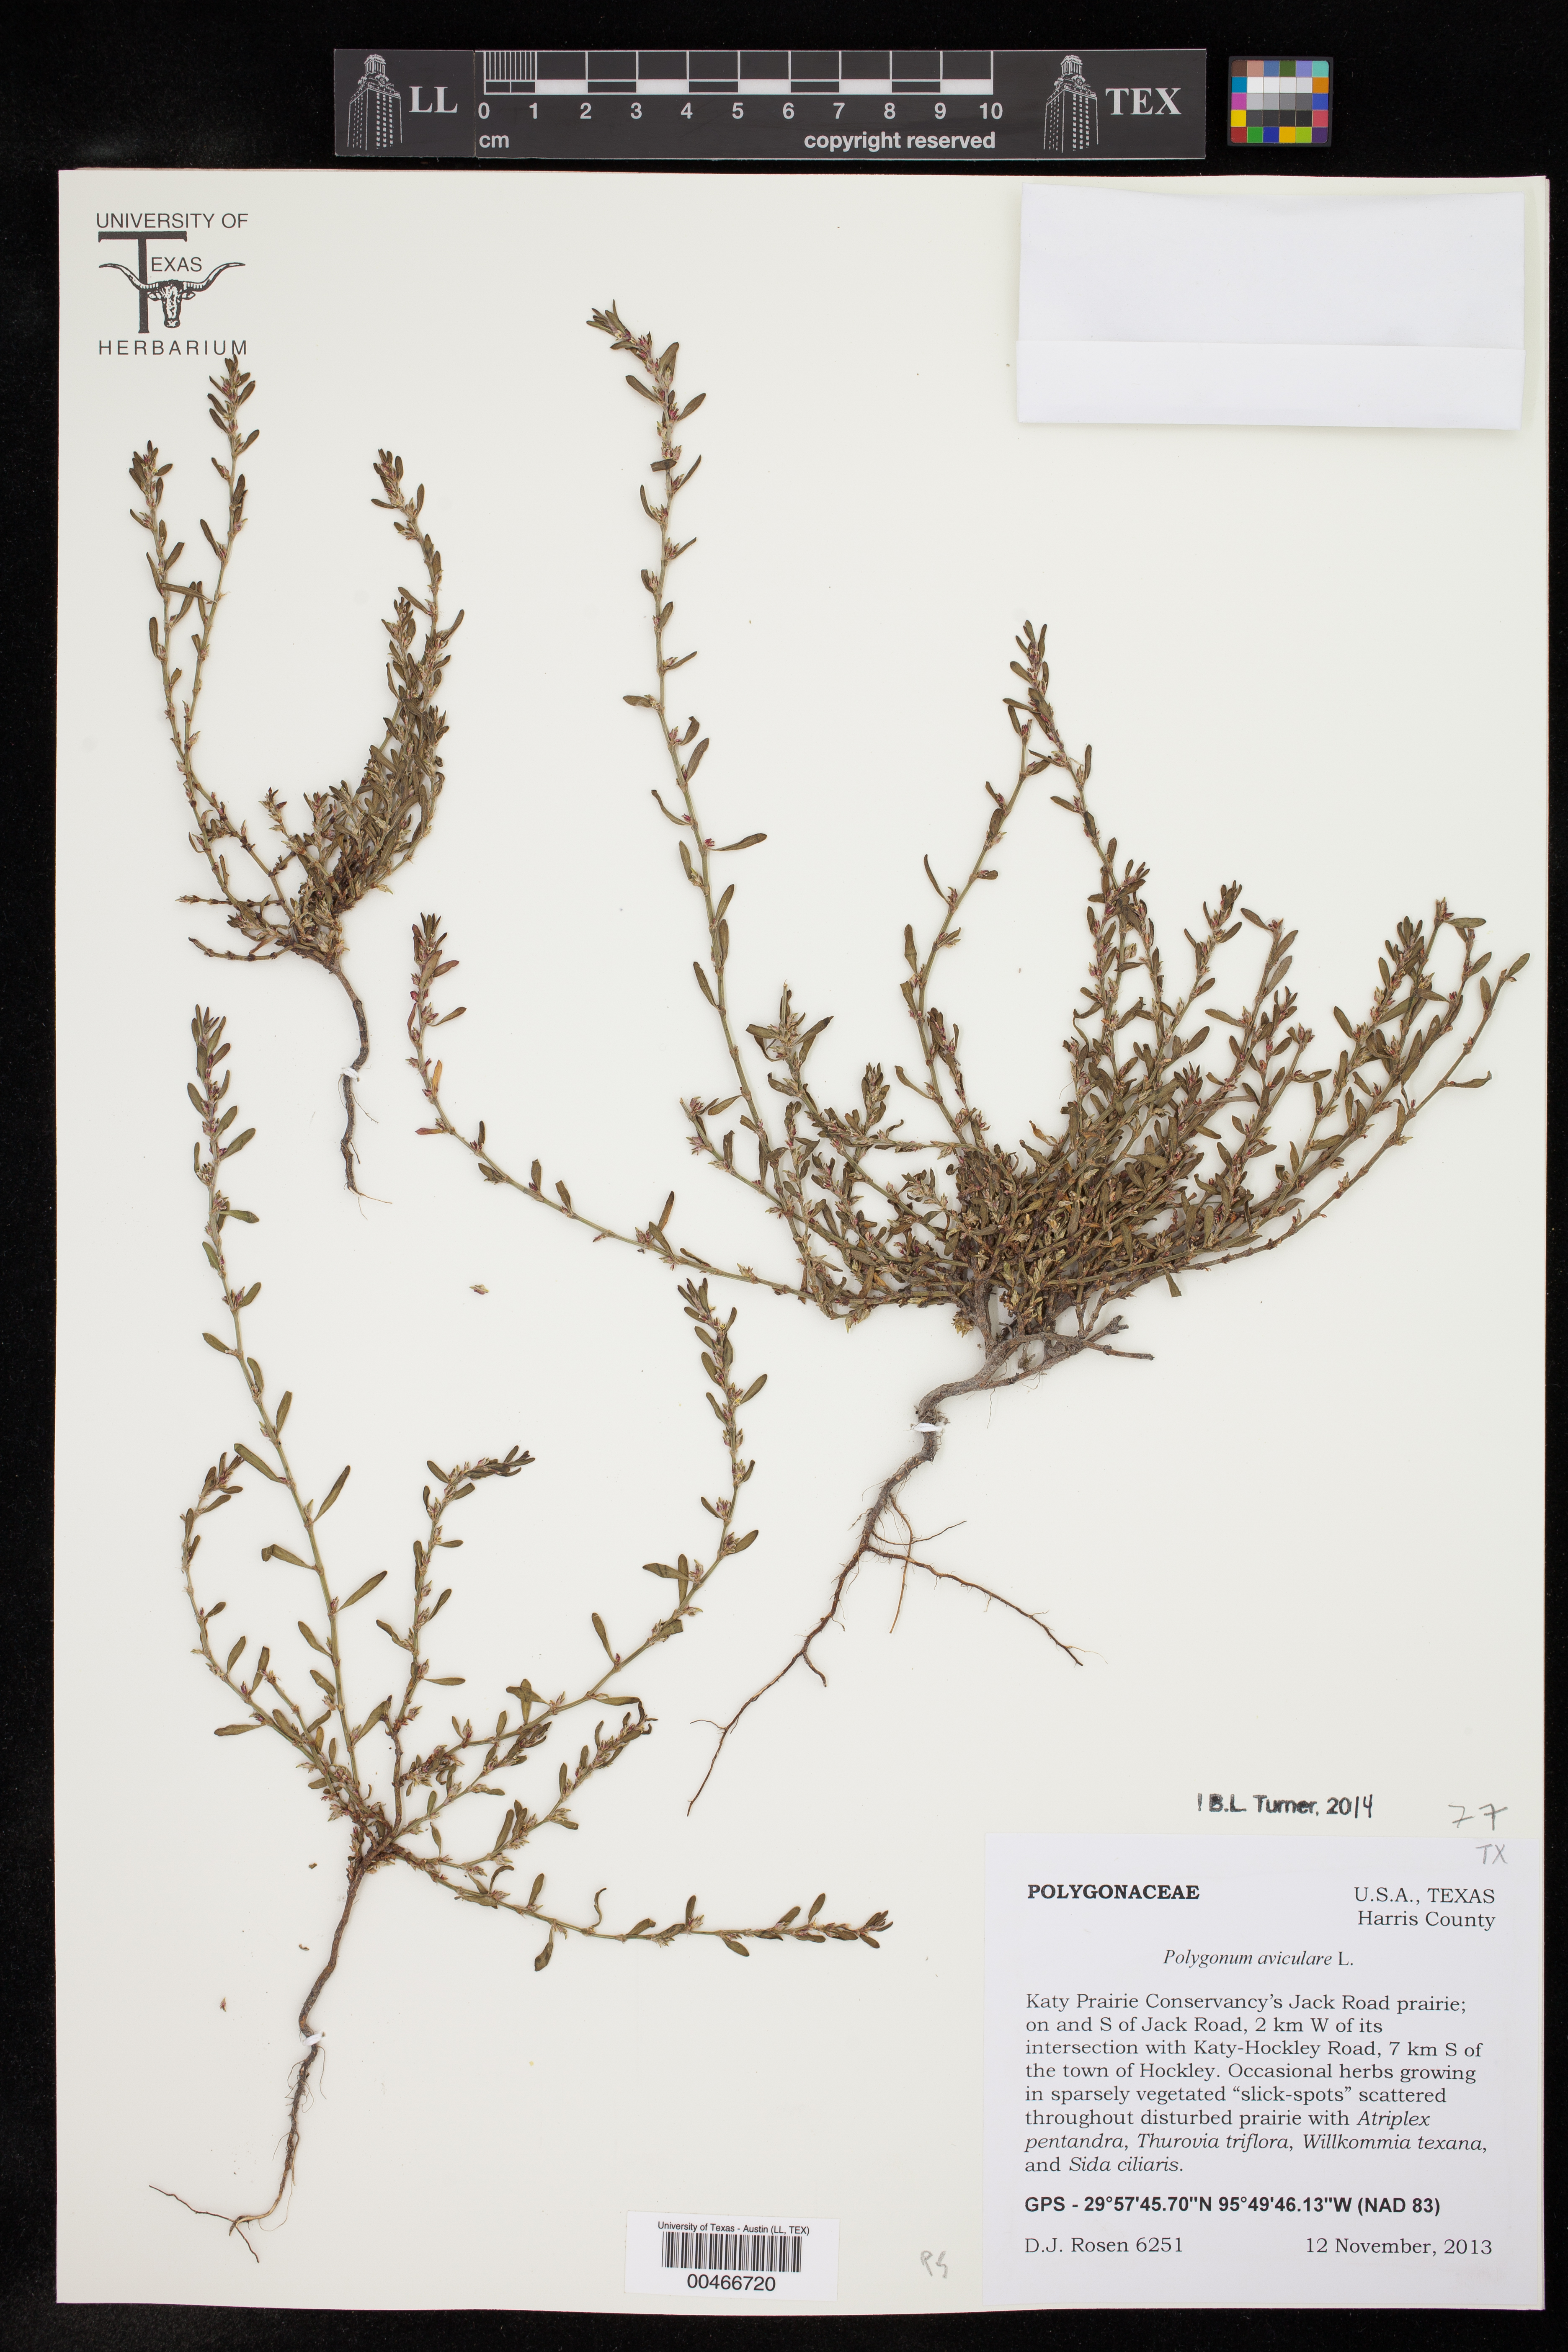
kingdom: Plantae
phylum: Tracheophyta
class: Magnoliopsida
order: Caryophyllales
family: Polygonaceae
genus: Polygonum
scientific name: Polygonum aviculare
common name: Prostrate knotweed
